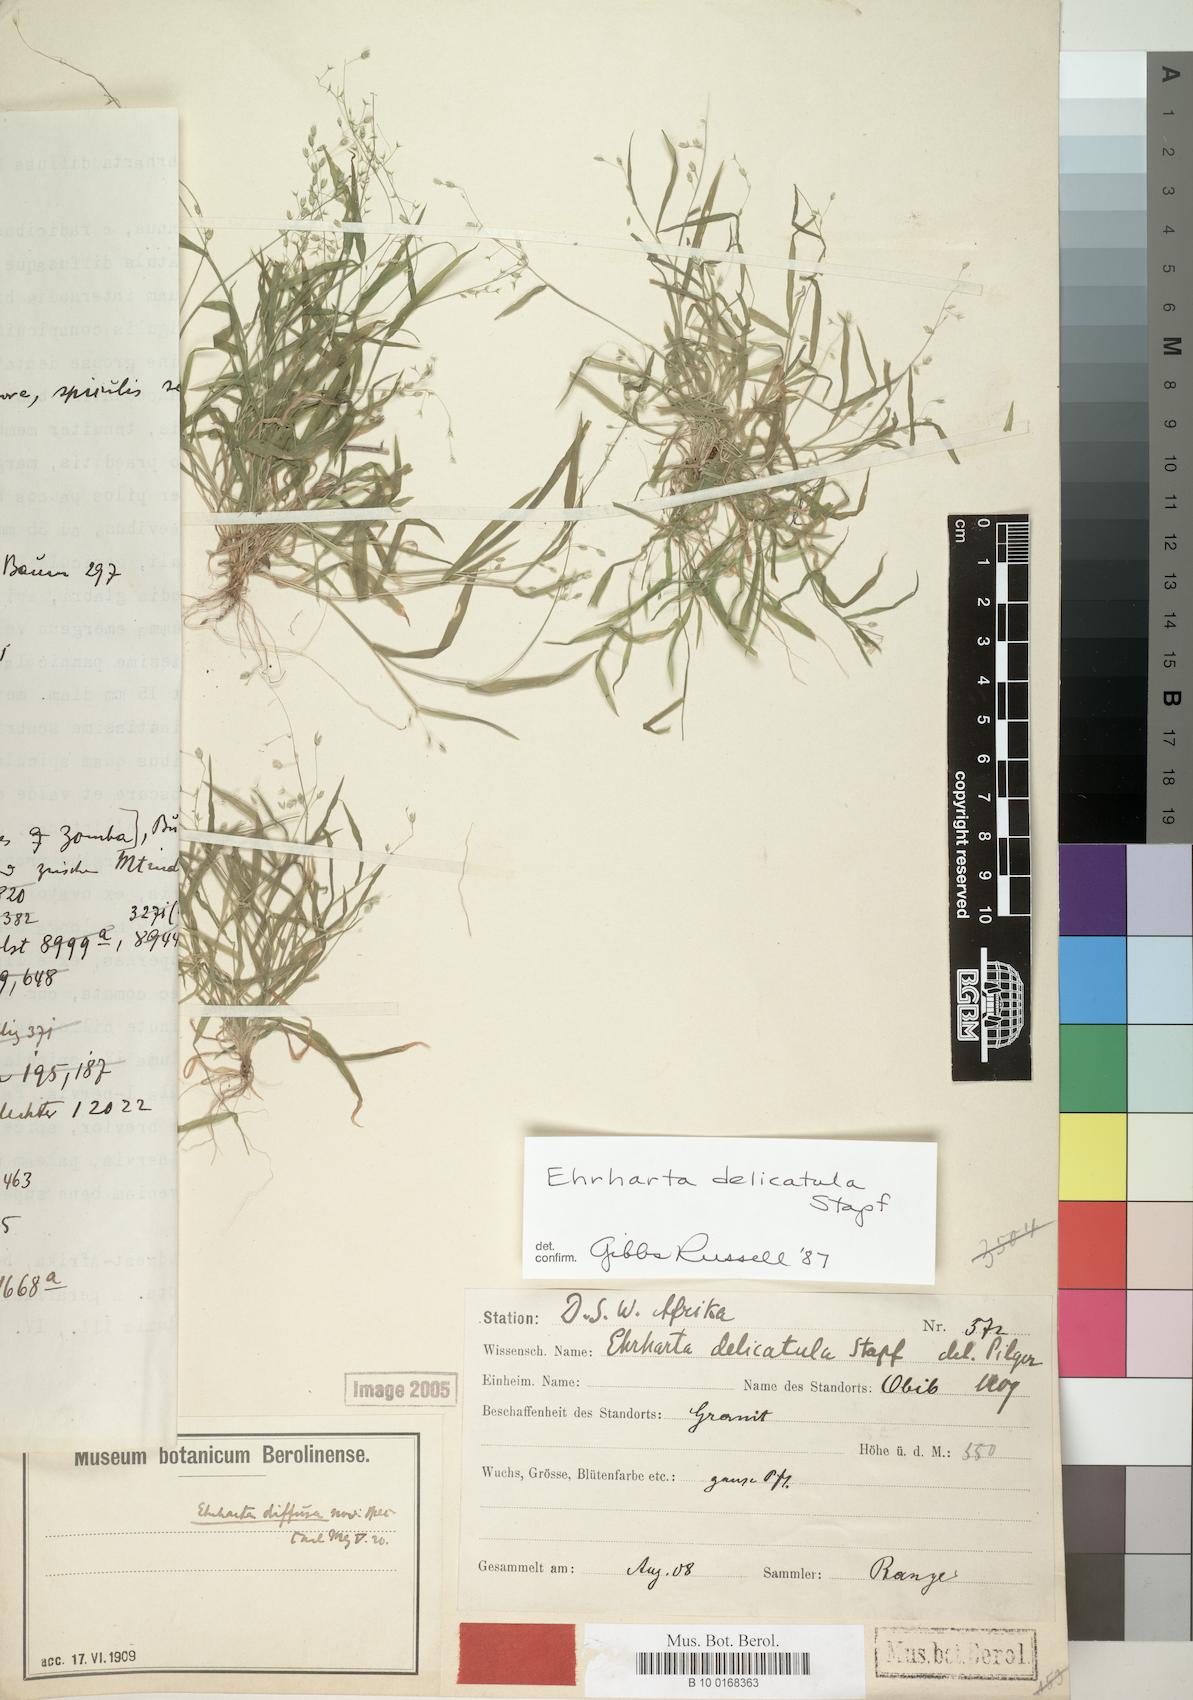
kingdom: Plantae
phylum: Tracheophyta
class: Liliopsida
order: Poales
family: Poaceae
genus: Ehrharta
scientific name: Ehrharta delicatula
